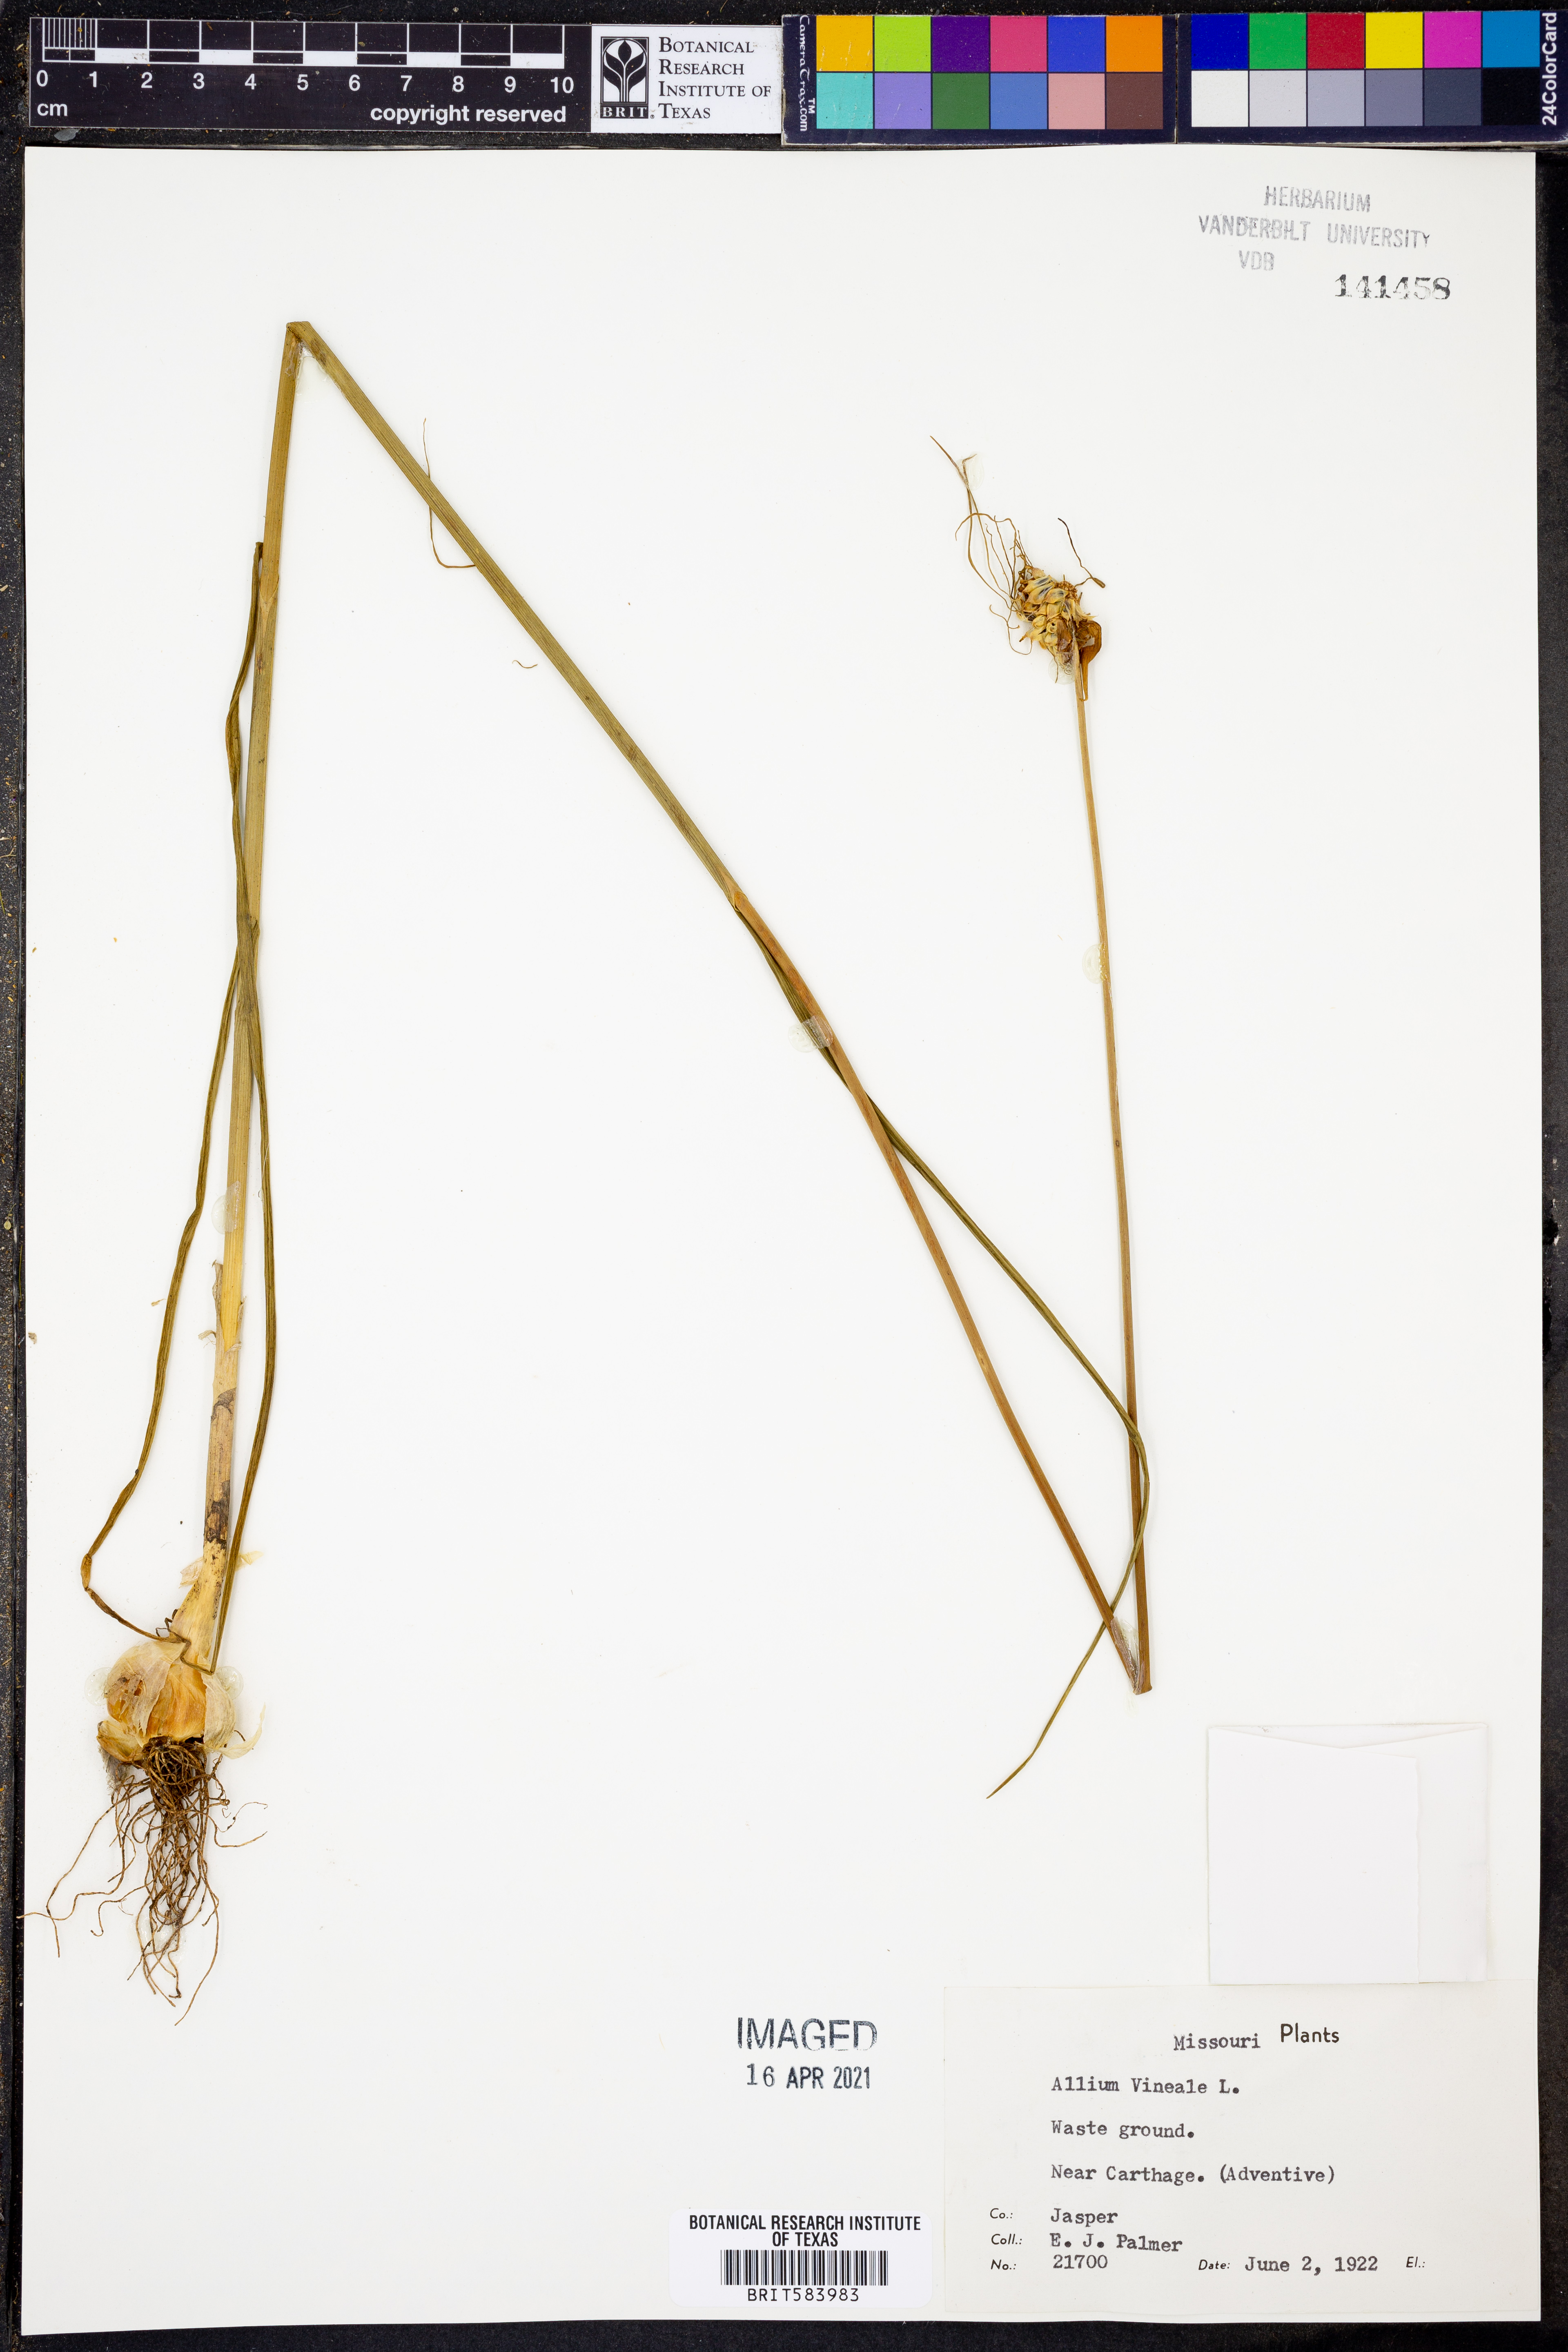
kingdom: Plantae
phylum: Tracheophyta
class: Liliopsida
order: Asparagales
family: Amaryllidaceae
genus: Allium
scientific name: Allium vineale
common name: Crow garlic
